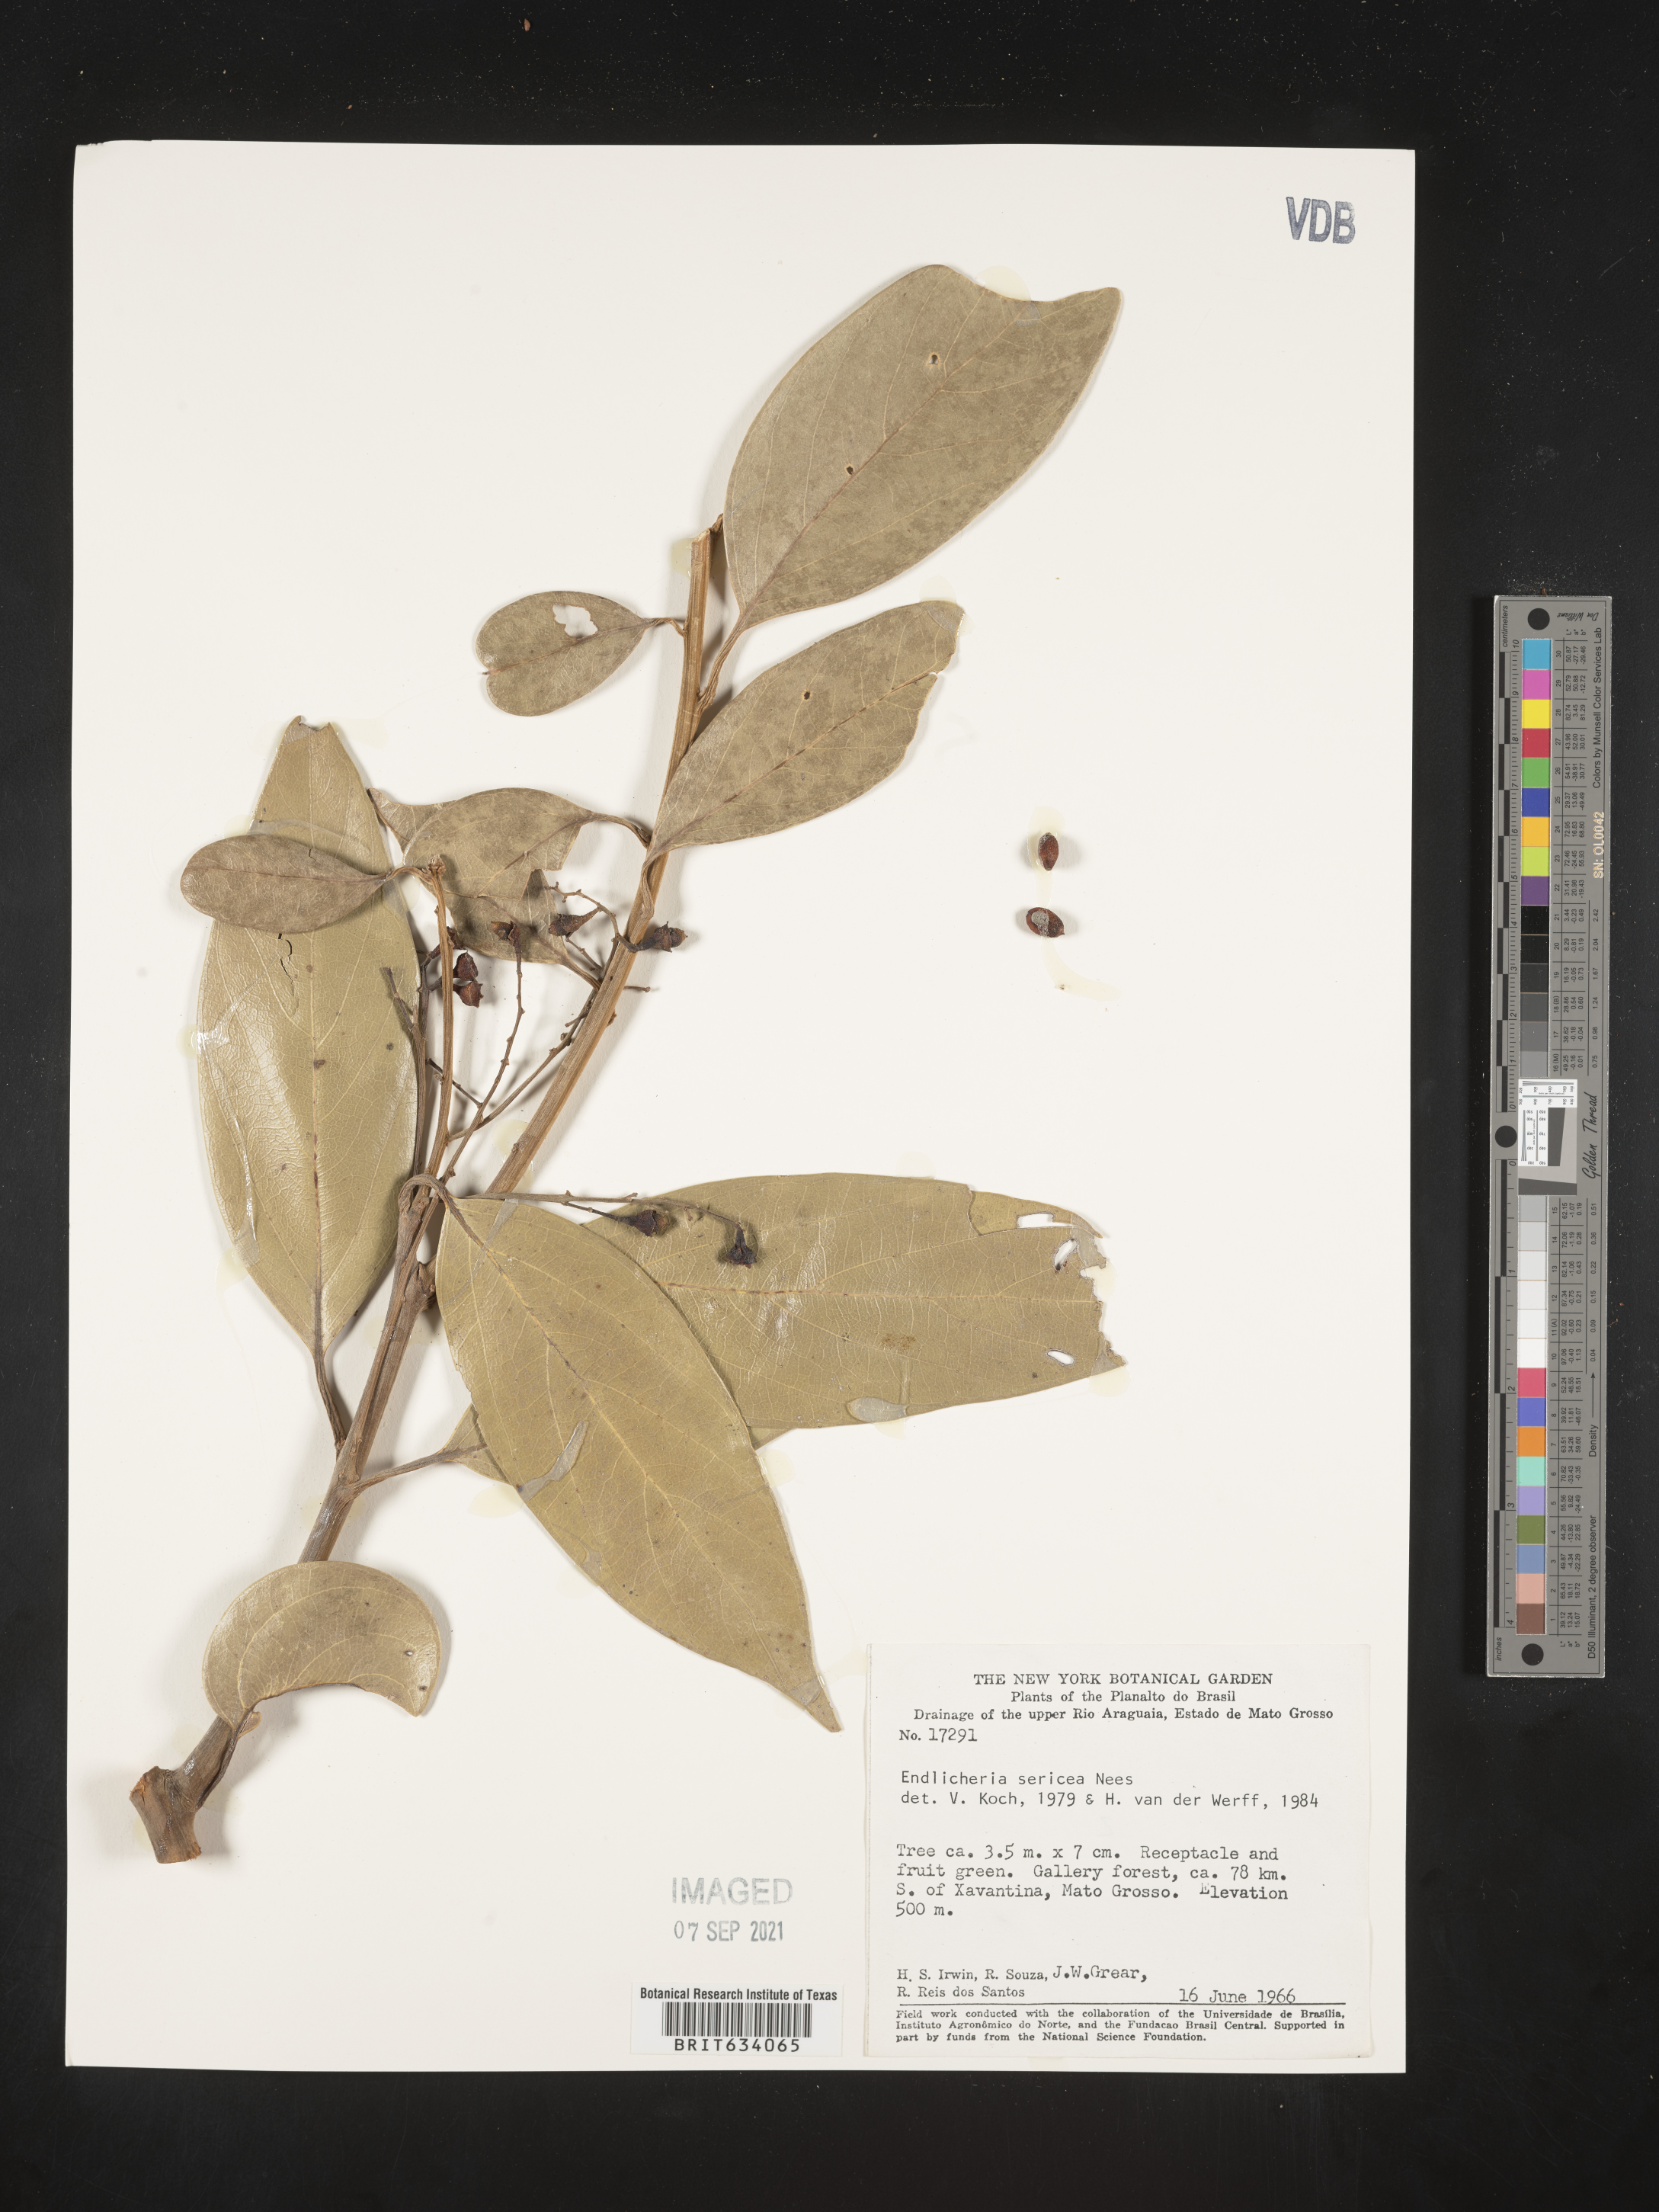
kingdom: Plantae
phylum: Tracheophyta
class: Magnoliopsida
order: Laurales
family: Lauraceae
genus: Endlicheria
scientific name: Endlicheria
